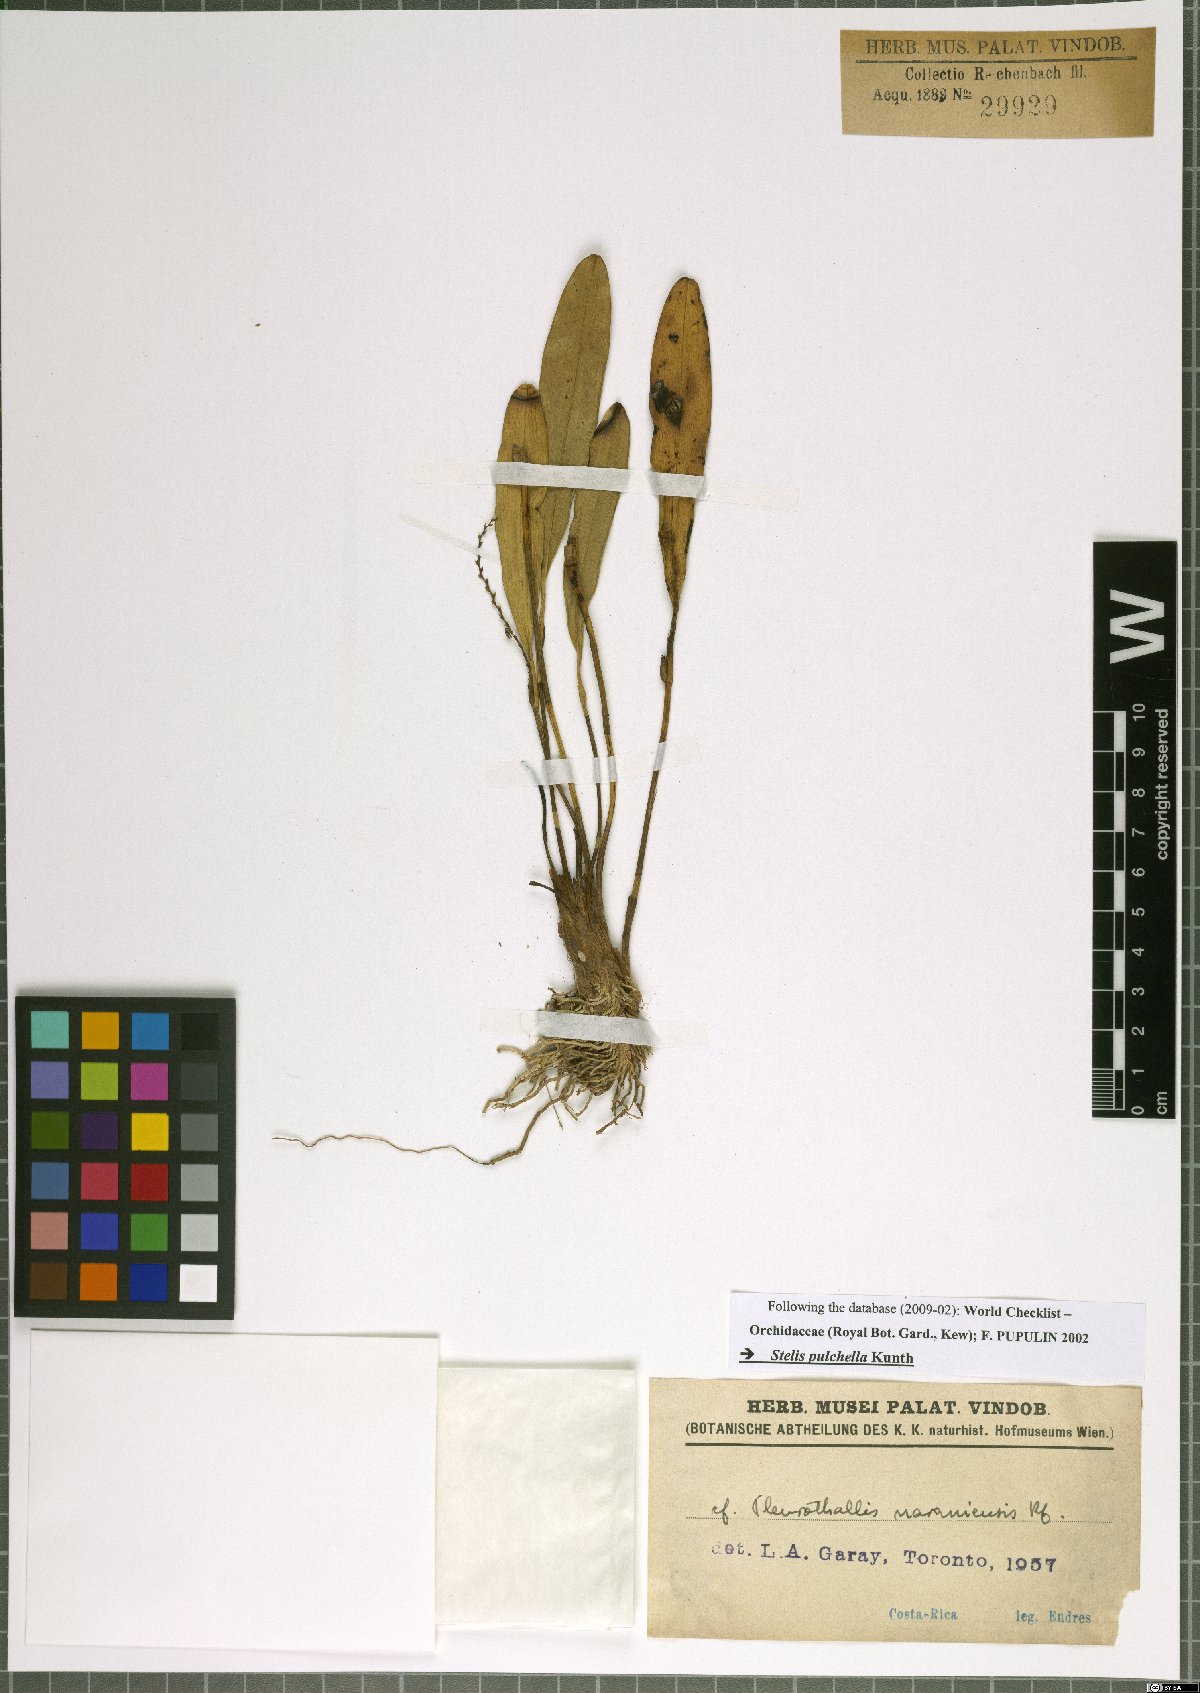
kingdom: Plantae
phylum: Tracheophyta
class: Liliopsida
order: Asparagales
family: Orchidaceae
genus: Stelis
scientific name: Stelis pulchella
